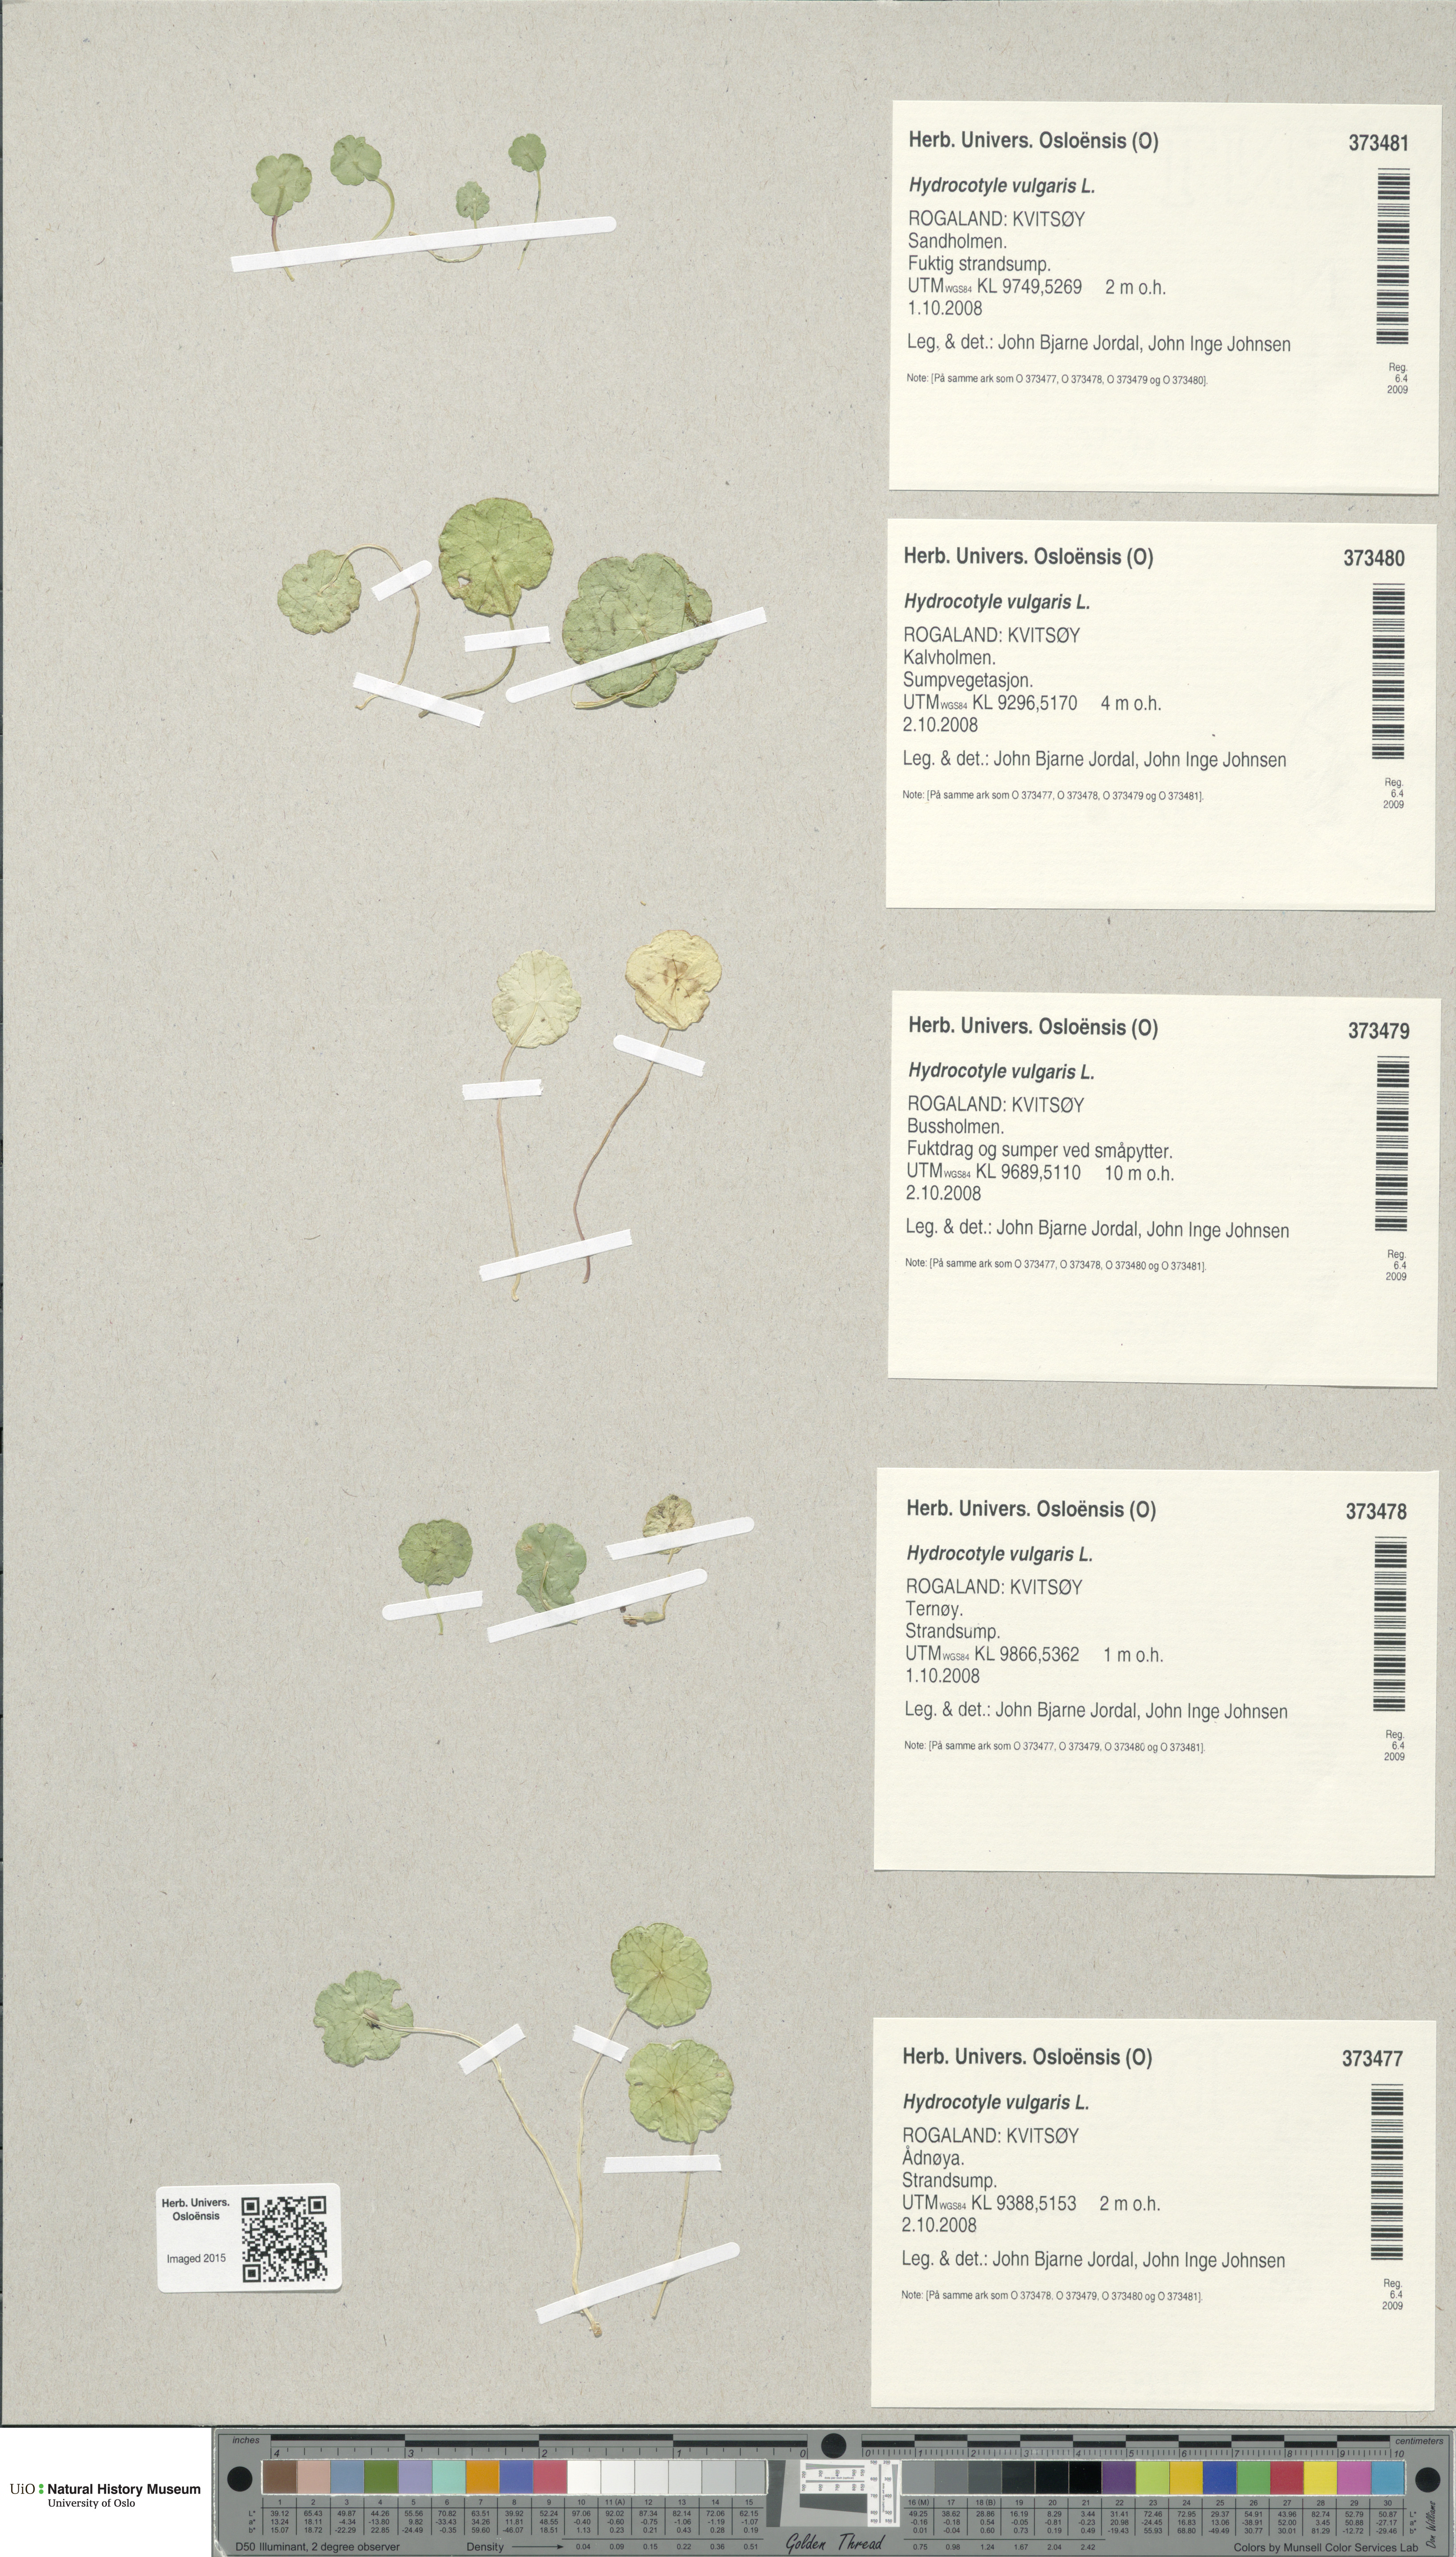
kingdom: Plantae
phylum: Tracheophyta
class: Magnoliopsida
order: Apiales
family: Araliaceae
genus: Hydrocotyle
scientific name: Hydrocotyle vulgaris
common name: Marsh pennywort
